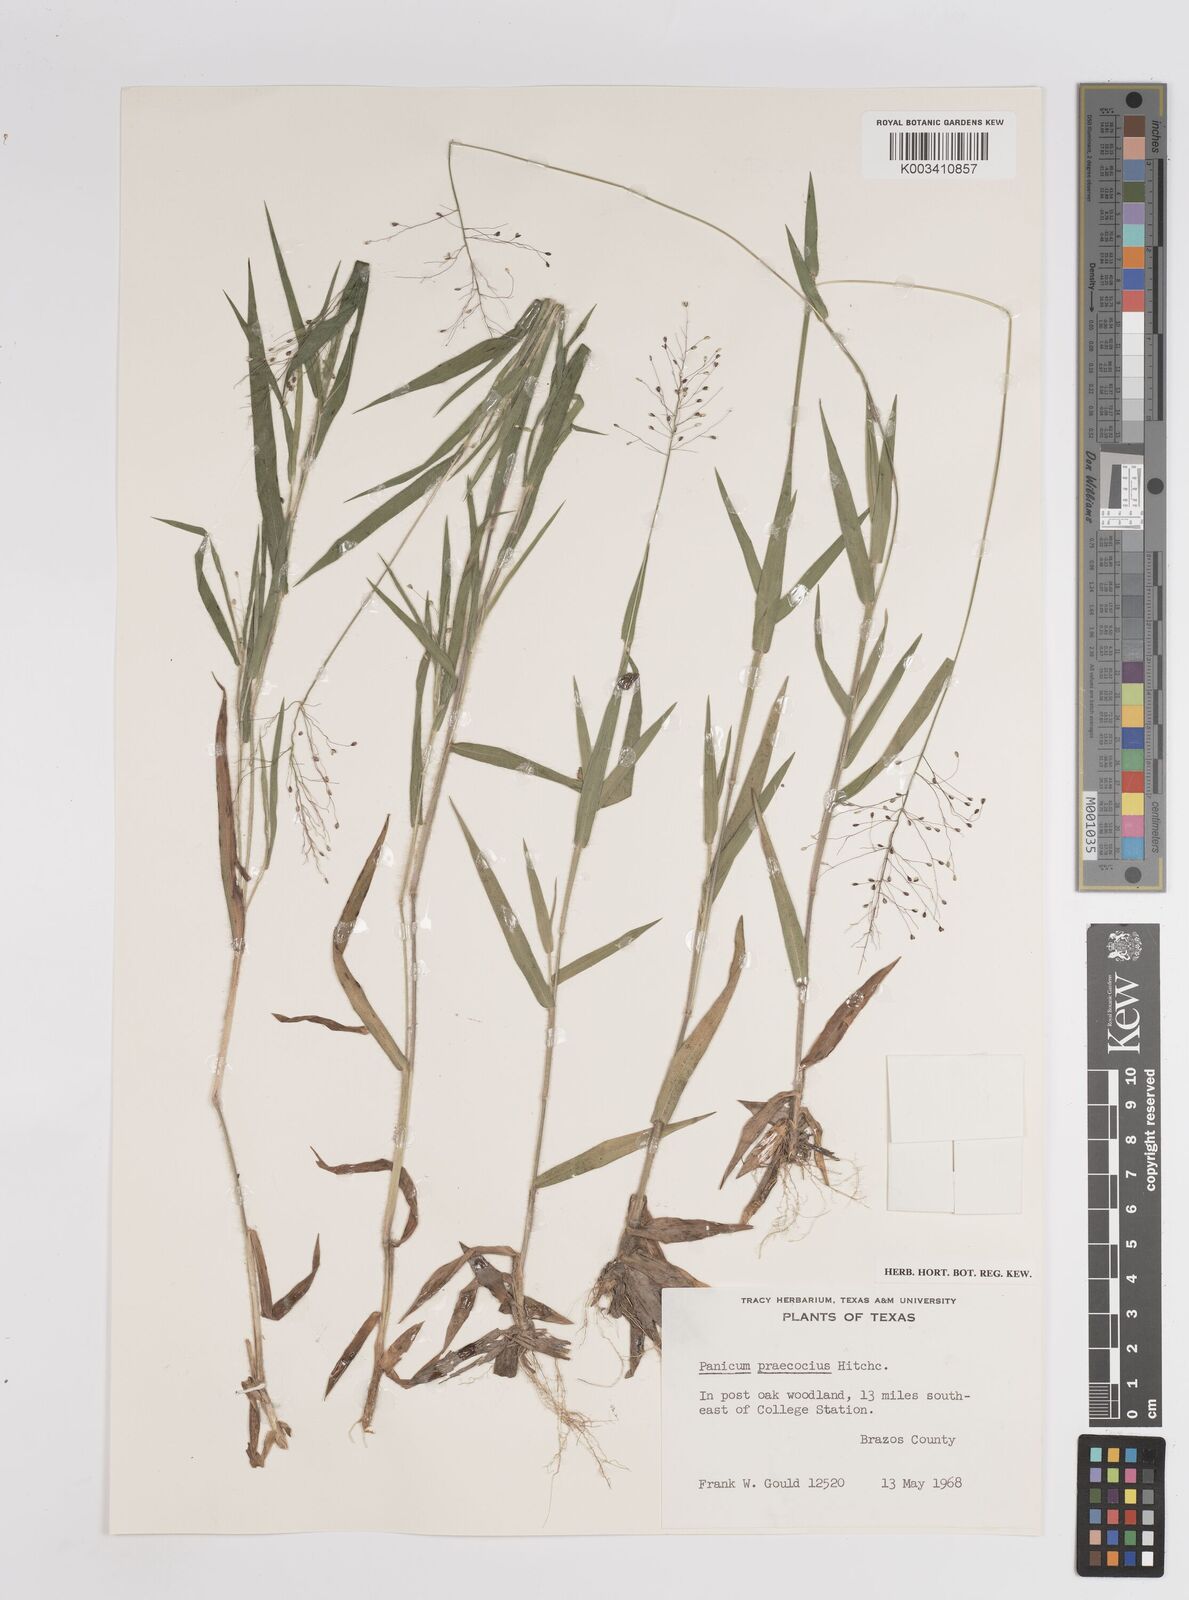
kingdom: Plantae
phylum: Tracheophyta
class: Liliopsida
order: Poales
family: Poaceae
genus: Dichanthelium
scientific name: Dichanthelium praecocius
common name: Early-branching panicgrass
